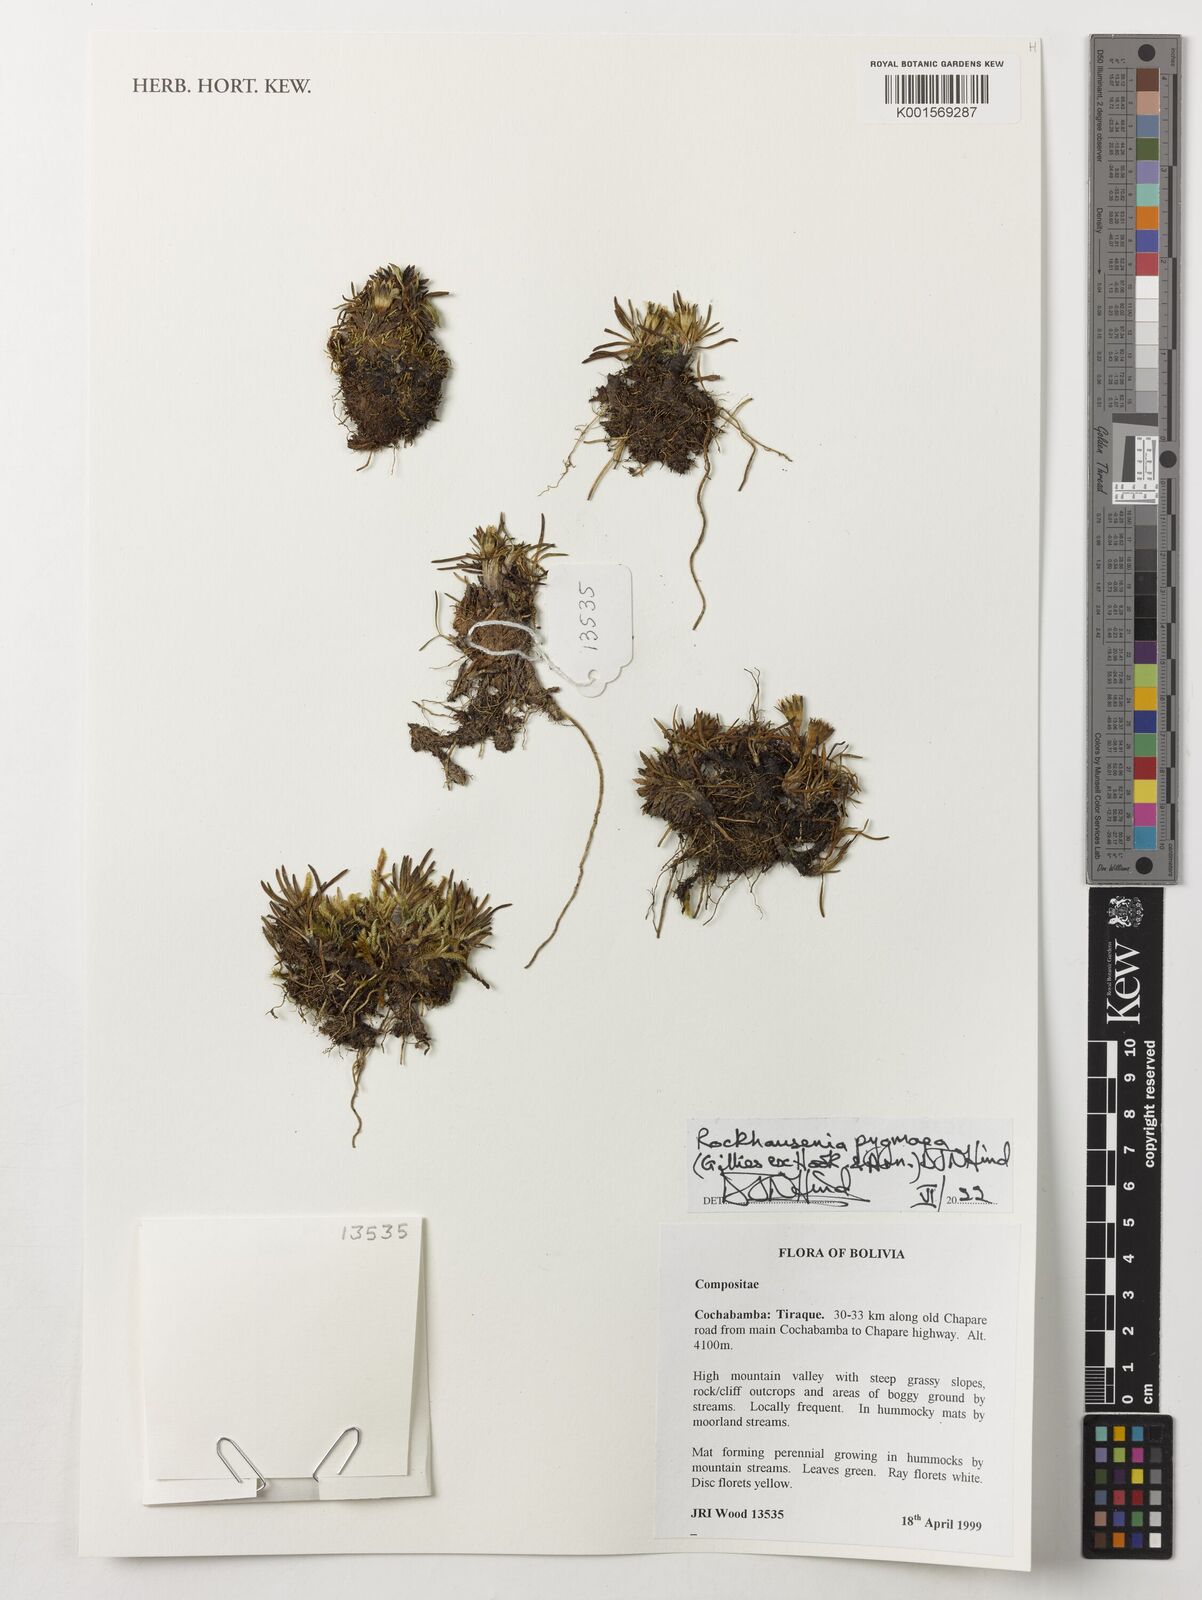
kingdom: Plantae
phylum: Tracheophyta
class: Magnoliopsida
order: Asterales
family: Asteraceae
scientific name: Asteraceae
